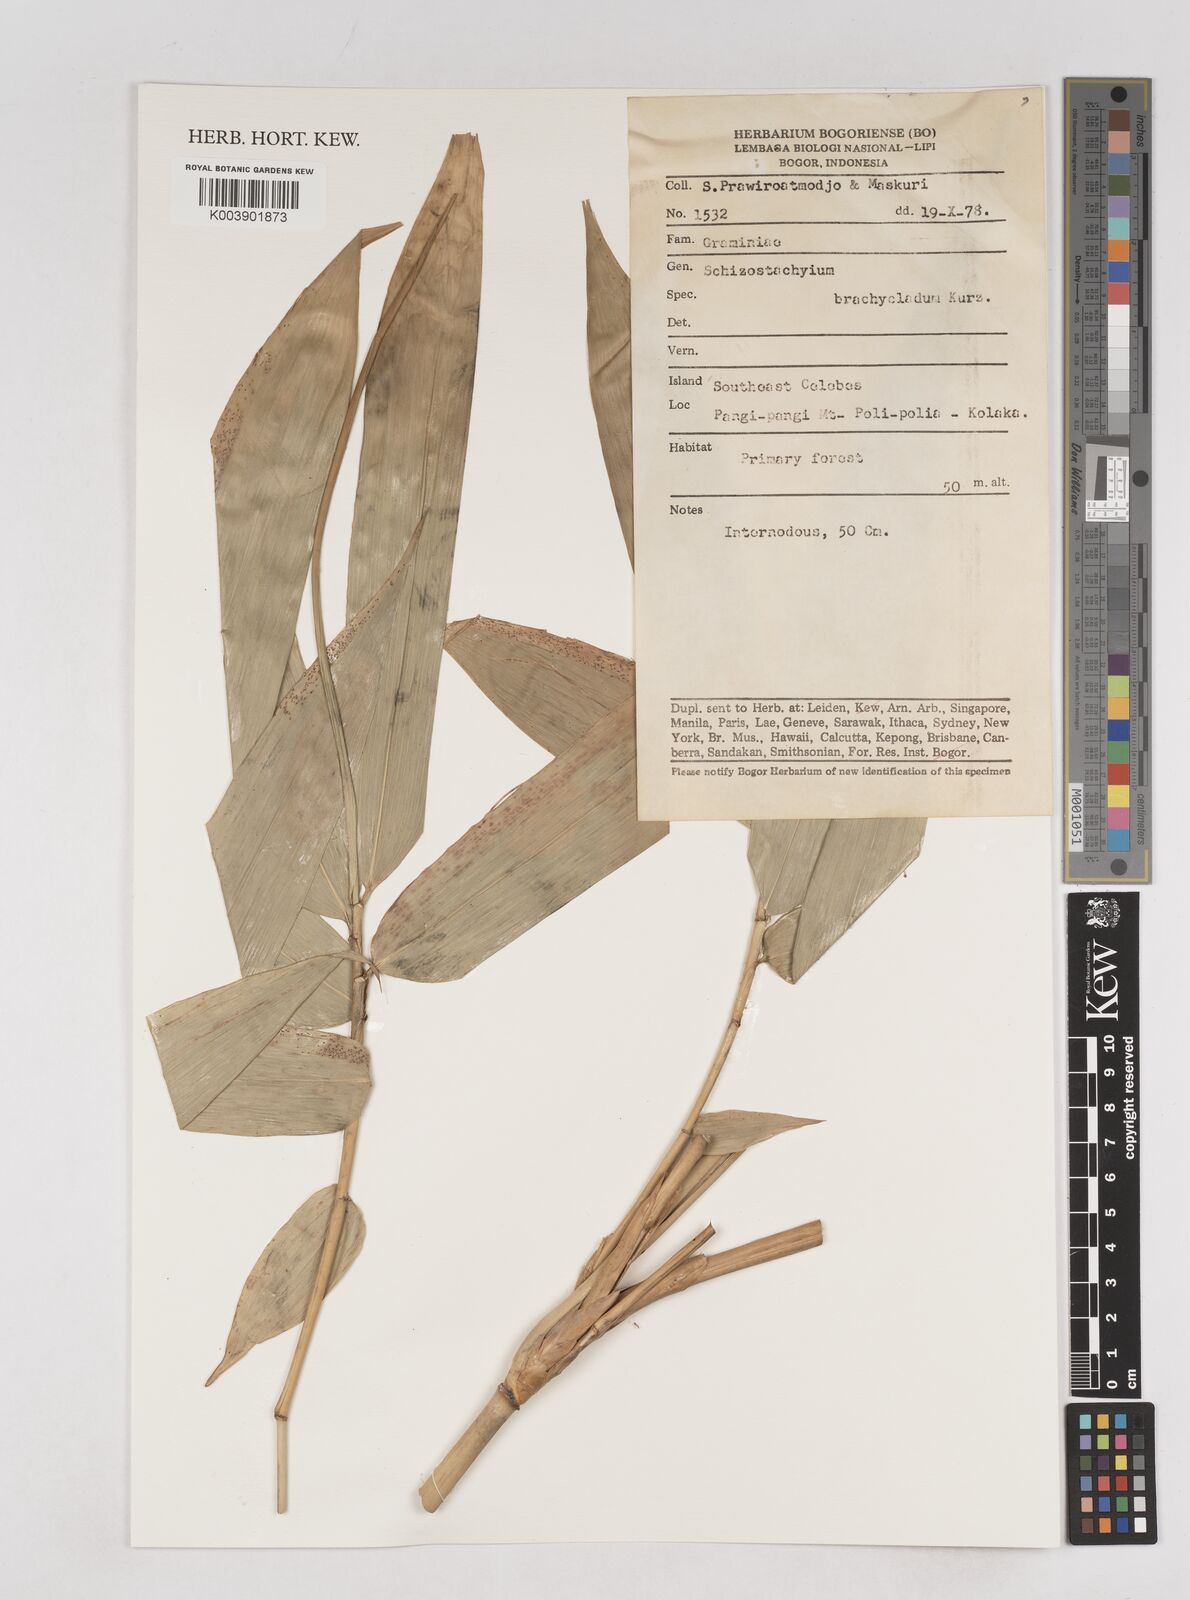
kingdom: Plantae
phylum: Tracheophyta
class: Liliopsida
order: Poales
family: Poaceae
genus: Schizostachyum
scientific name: Schizostachyum brachycladum
